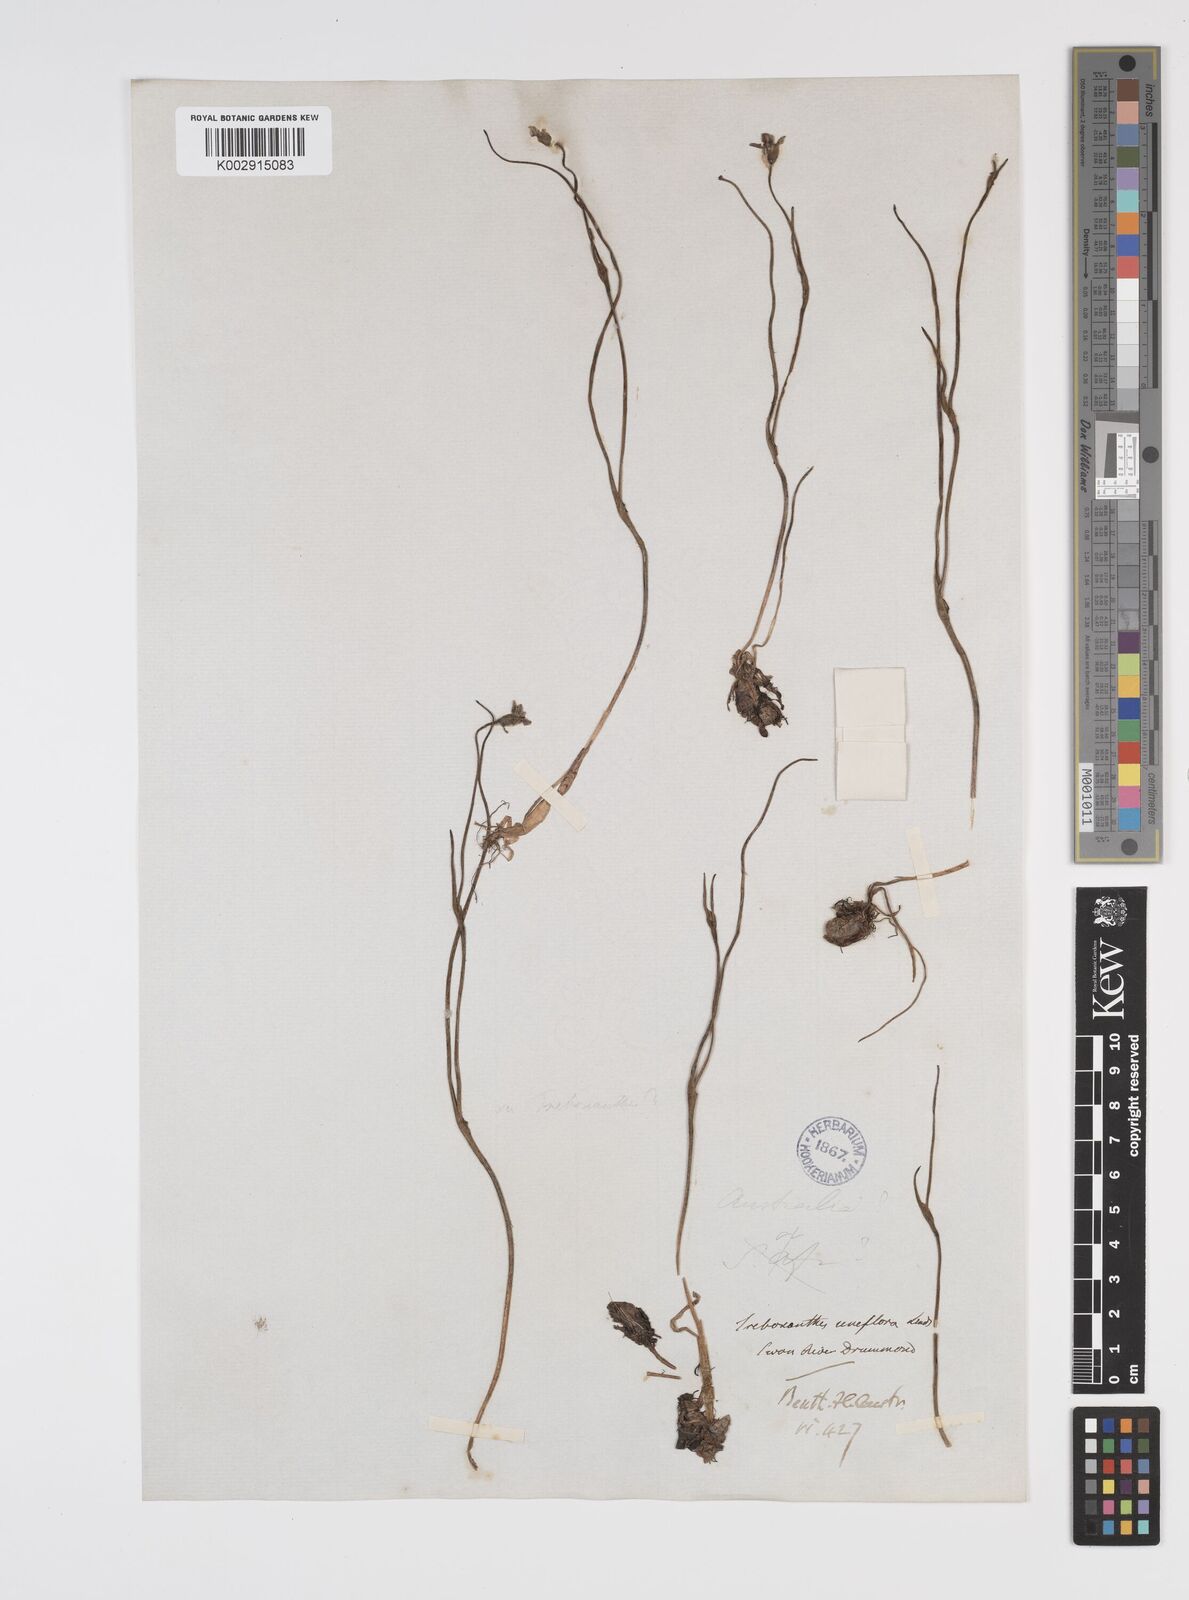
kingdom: Plantae
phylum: Tracheophyta
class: Liliopsida
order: Commelinales
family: Haemodoraceae
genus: Tribonanthes
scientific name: Tribonanthes uniflora
